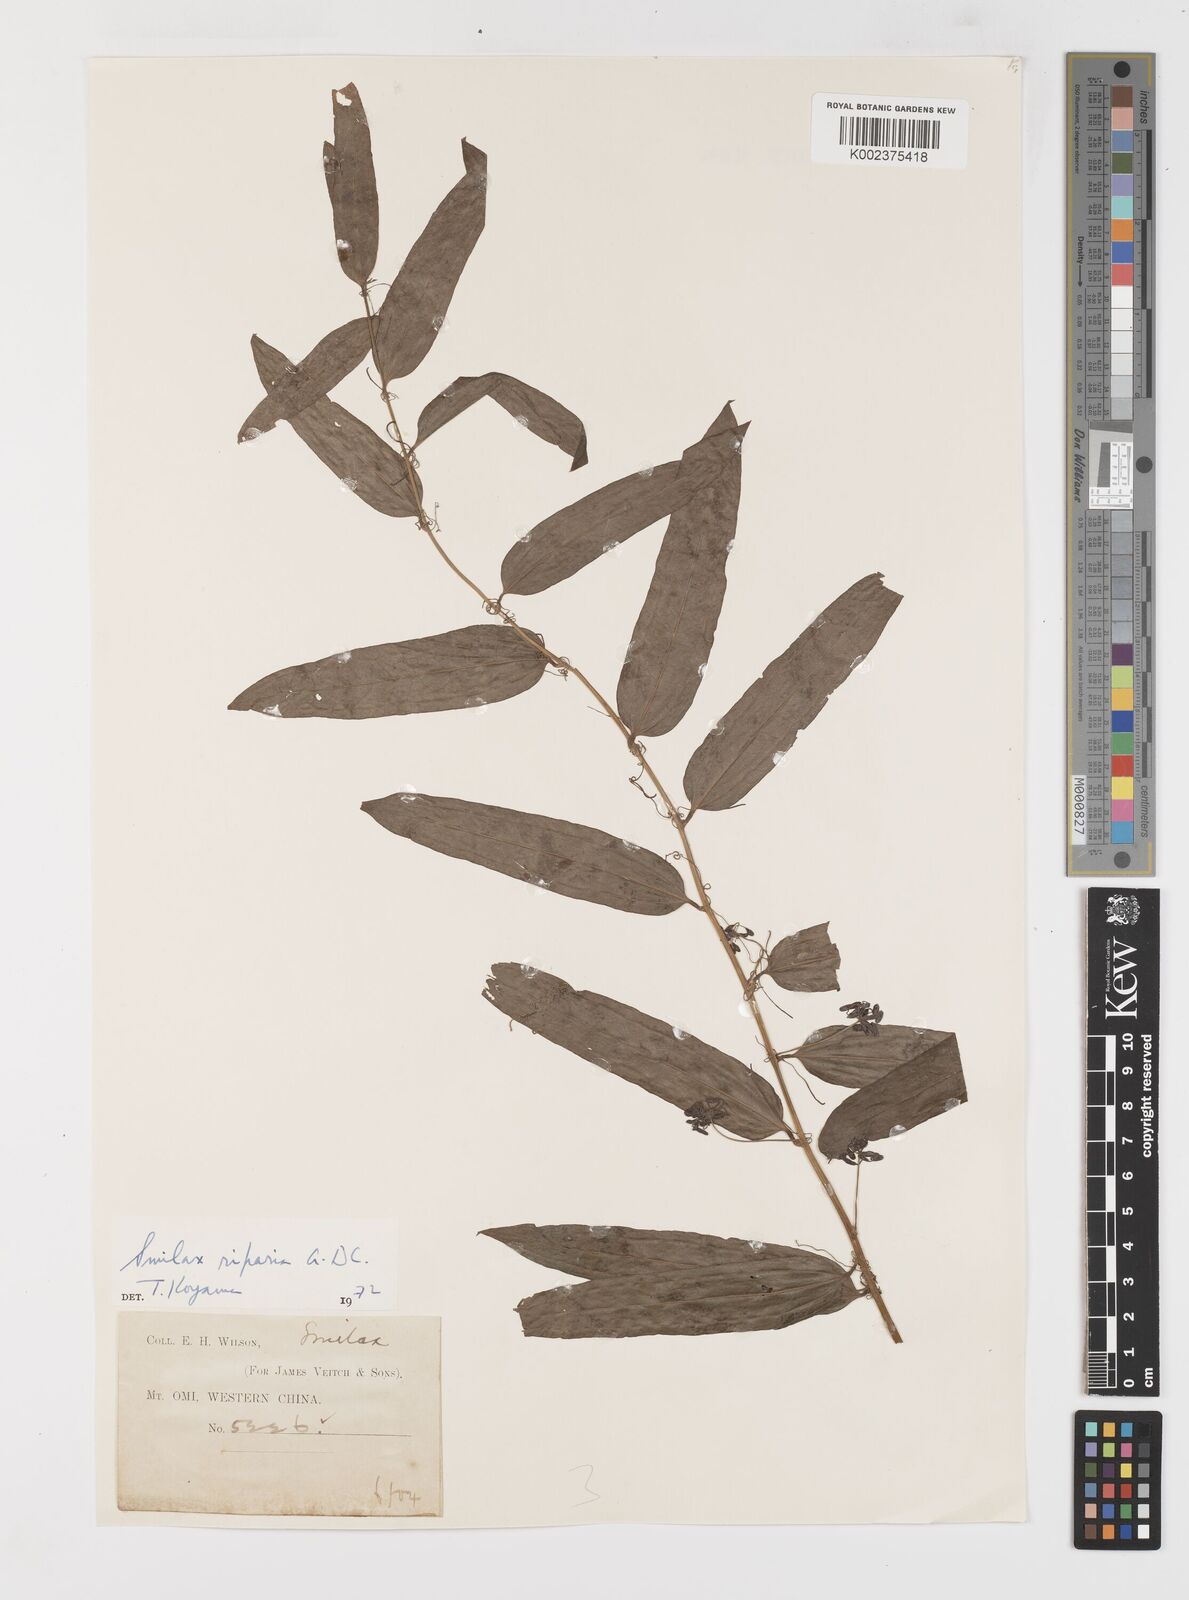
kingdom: Plantae
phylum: Tracheophyta
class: Liliopsida
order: Liliales
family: Smilacaceae
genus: Smilax
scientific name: Smilax riparia
